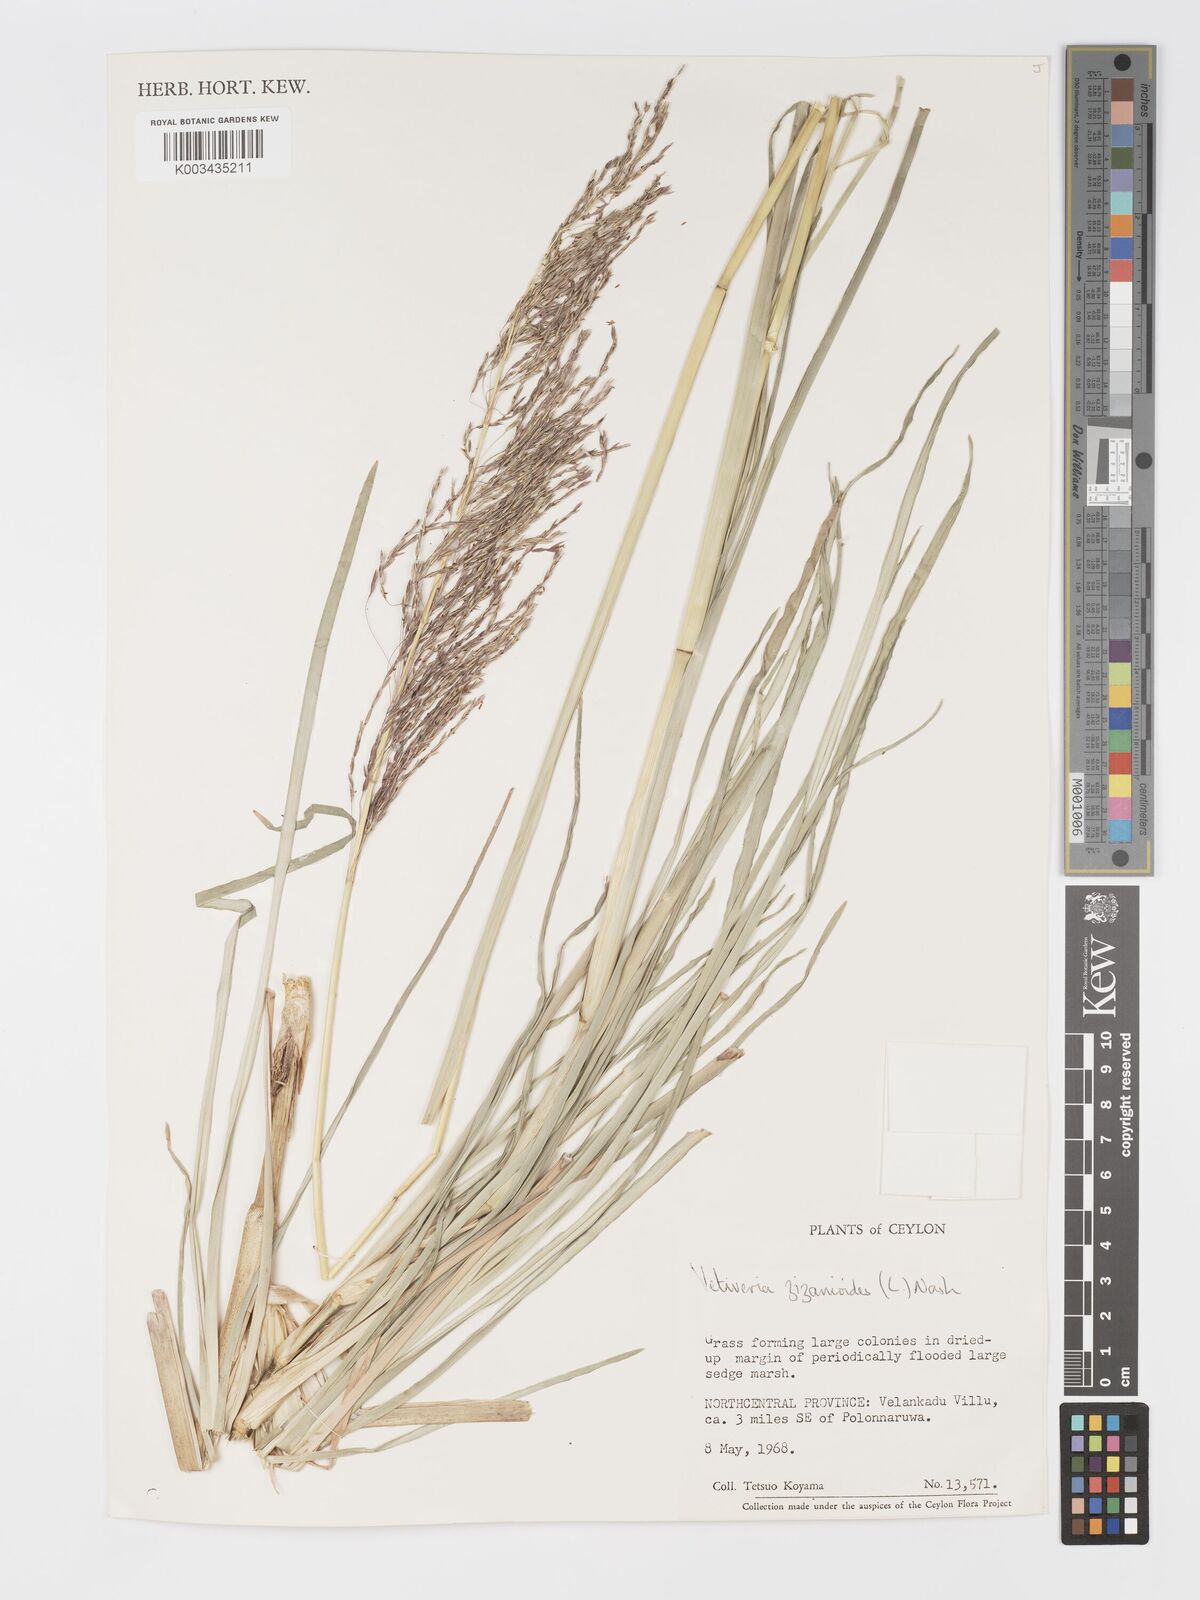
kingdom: Plantae
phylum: Tracheophyta
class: Liliopsida
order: Poales
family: Poaceae
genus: Chrysopogon
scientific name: Chrysopogon zizanioides
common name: False beardgrass
